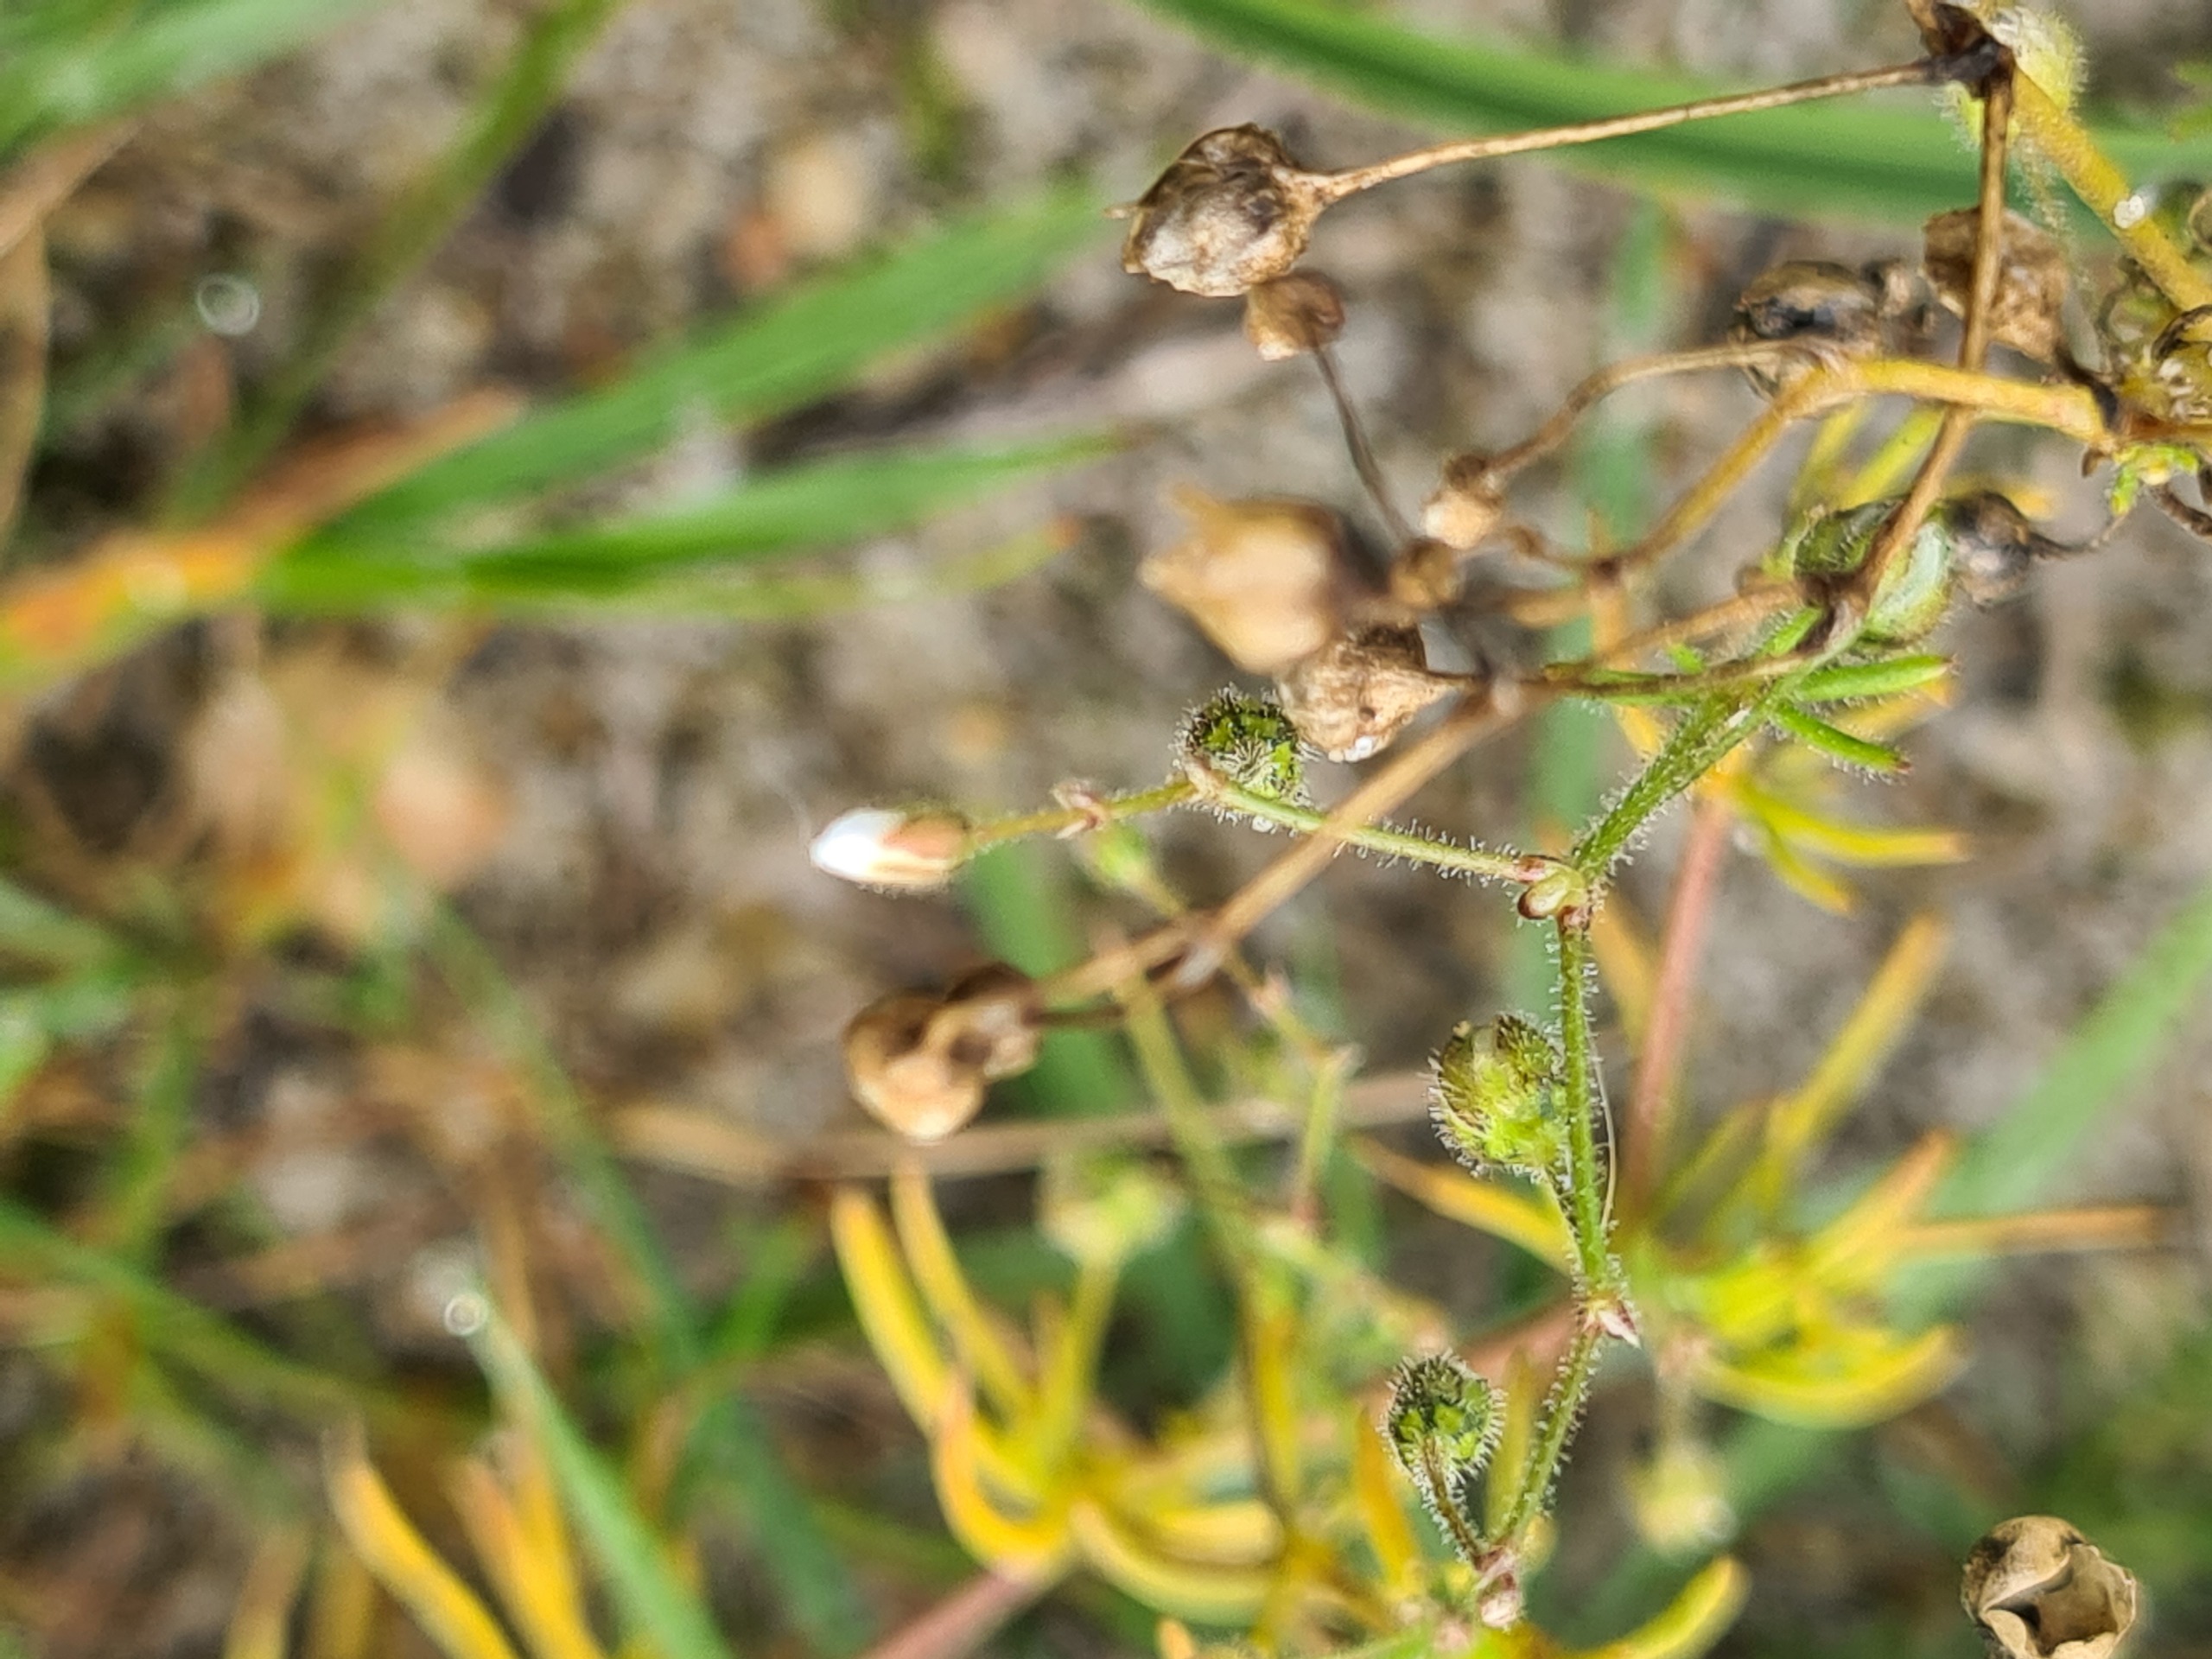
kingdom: Plantae
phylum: Tracheophyta
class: Magnoliopsida
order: Caryophyllales
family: Caryophyllaceae
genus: Spergula
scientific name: Spergula arvensis
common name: Almindelig spergel (underart)
